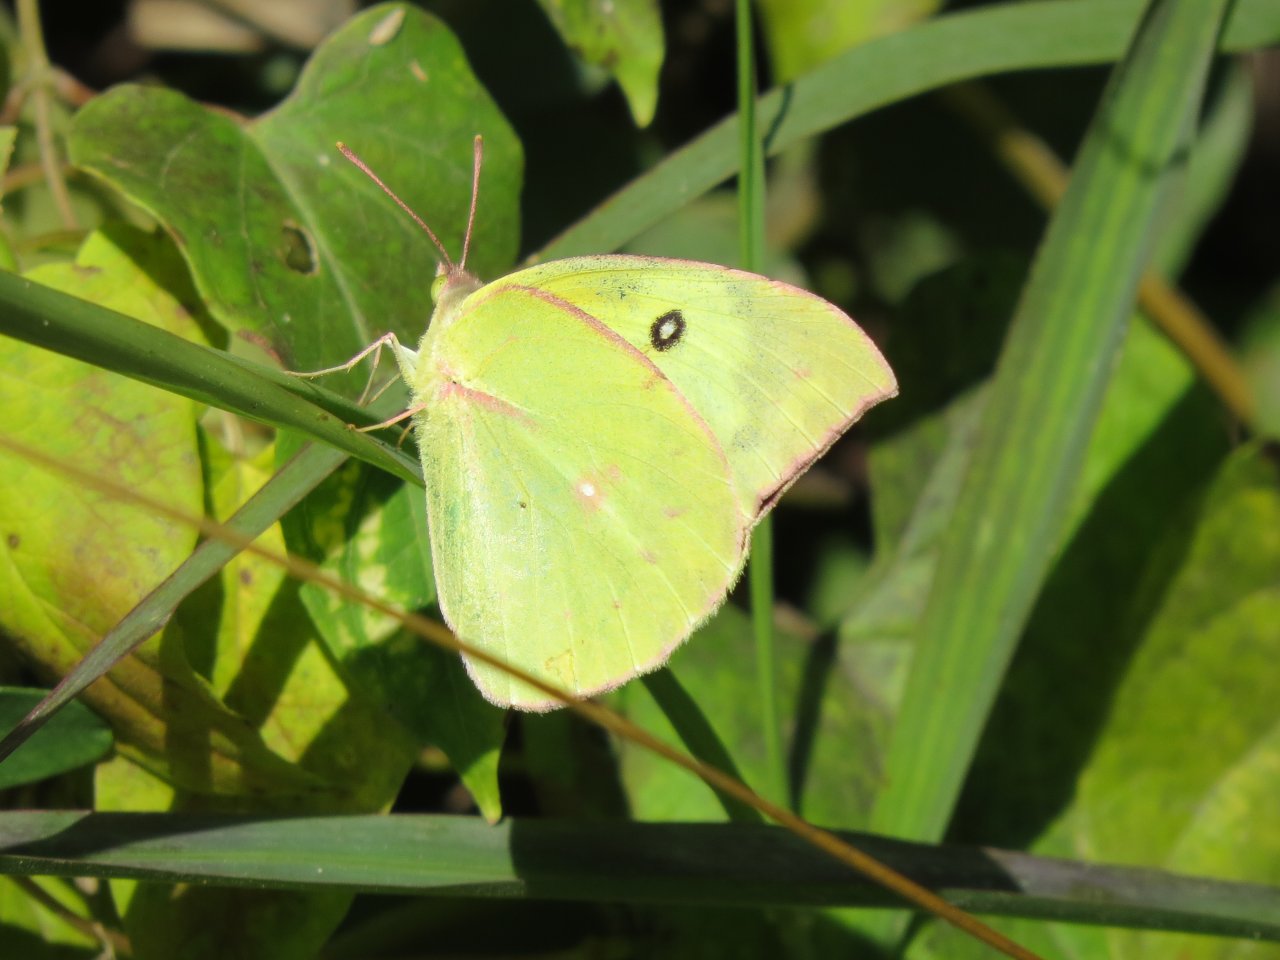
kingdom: Animalia
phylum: Arthropoda
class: Insecta
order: Lepidoptera
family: Pieridae
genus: Zerene
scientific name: Zerene cesonia
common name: Southern Dogface
